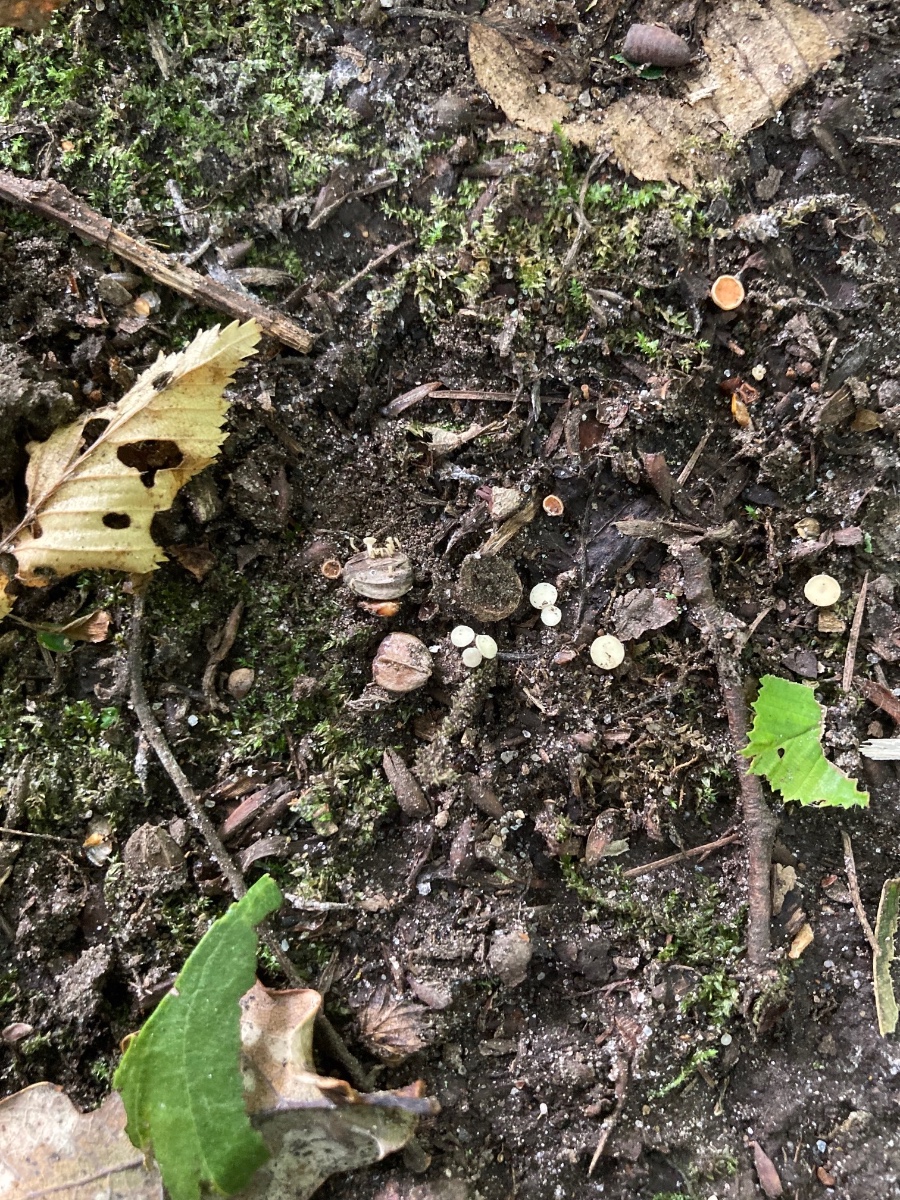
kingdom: Fungi
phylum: Ascomycota
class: Leotiomycetes
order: Helotiales
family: Helotiaceae
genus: Hymenoscyphus
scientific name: Hymenoscyphus carpini
